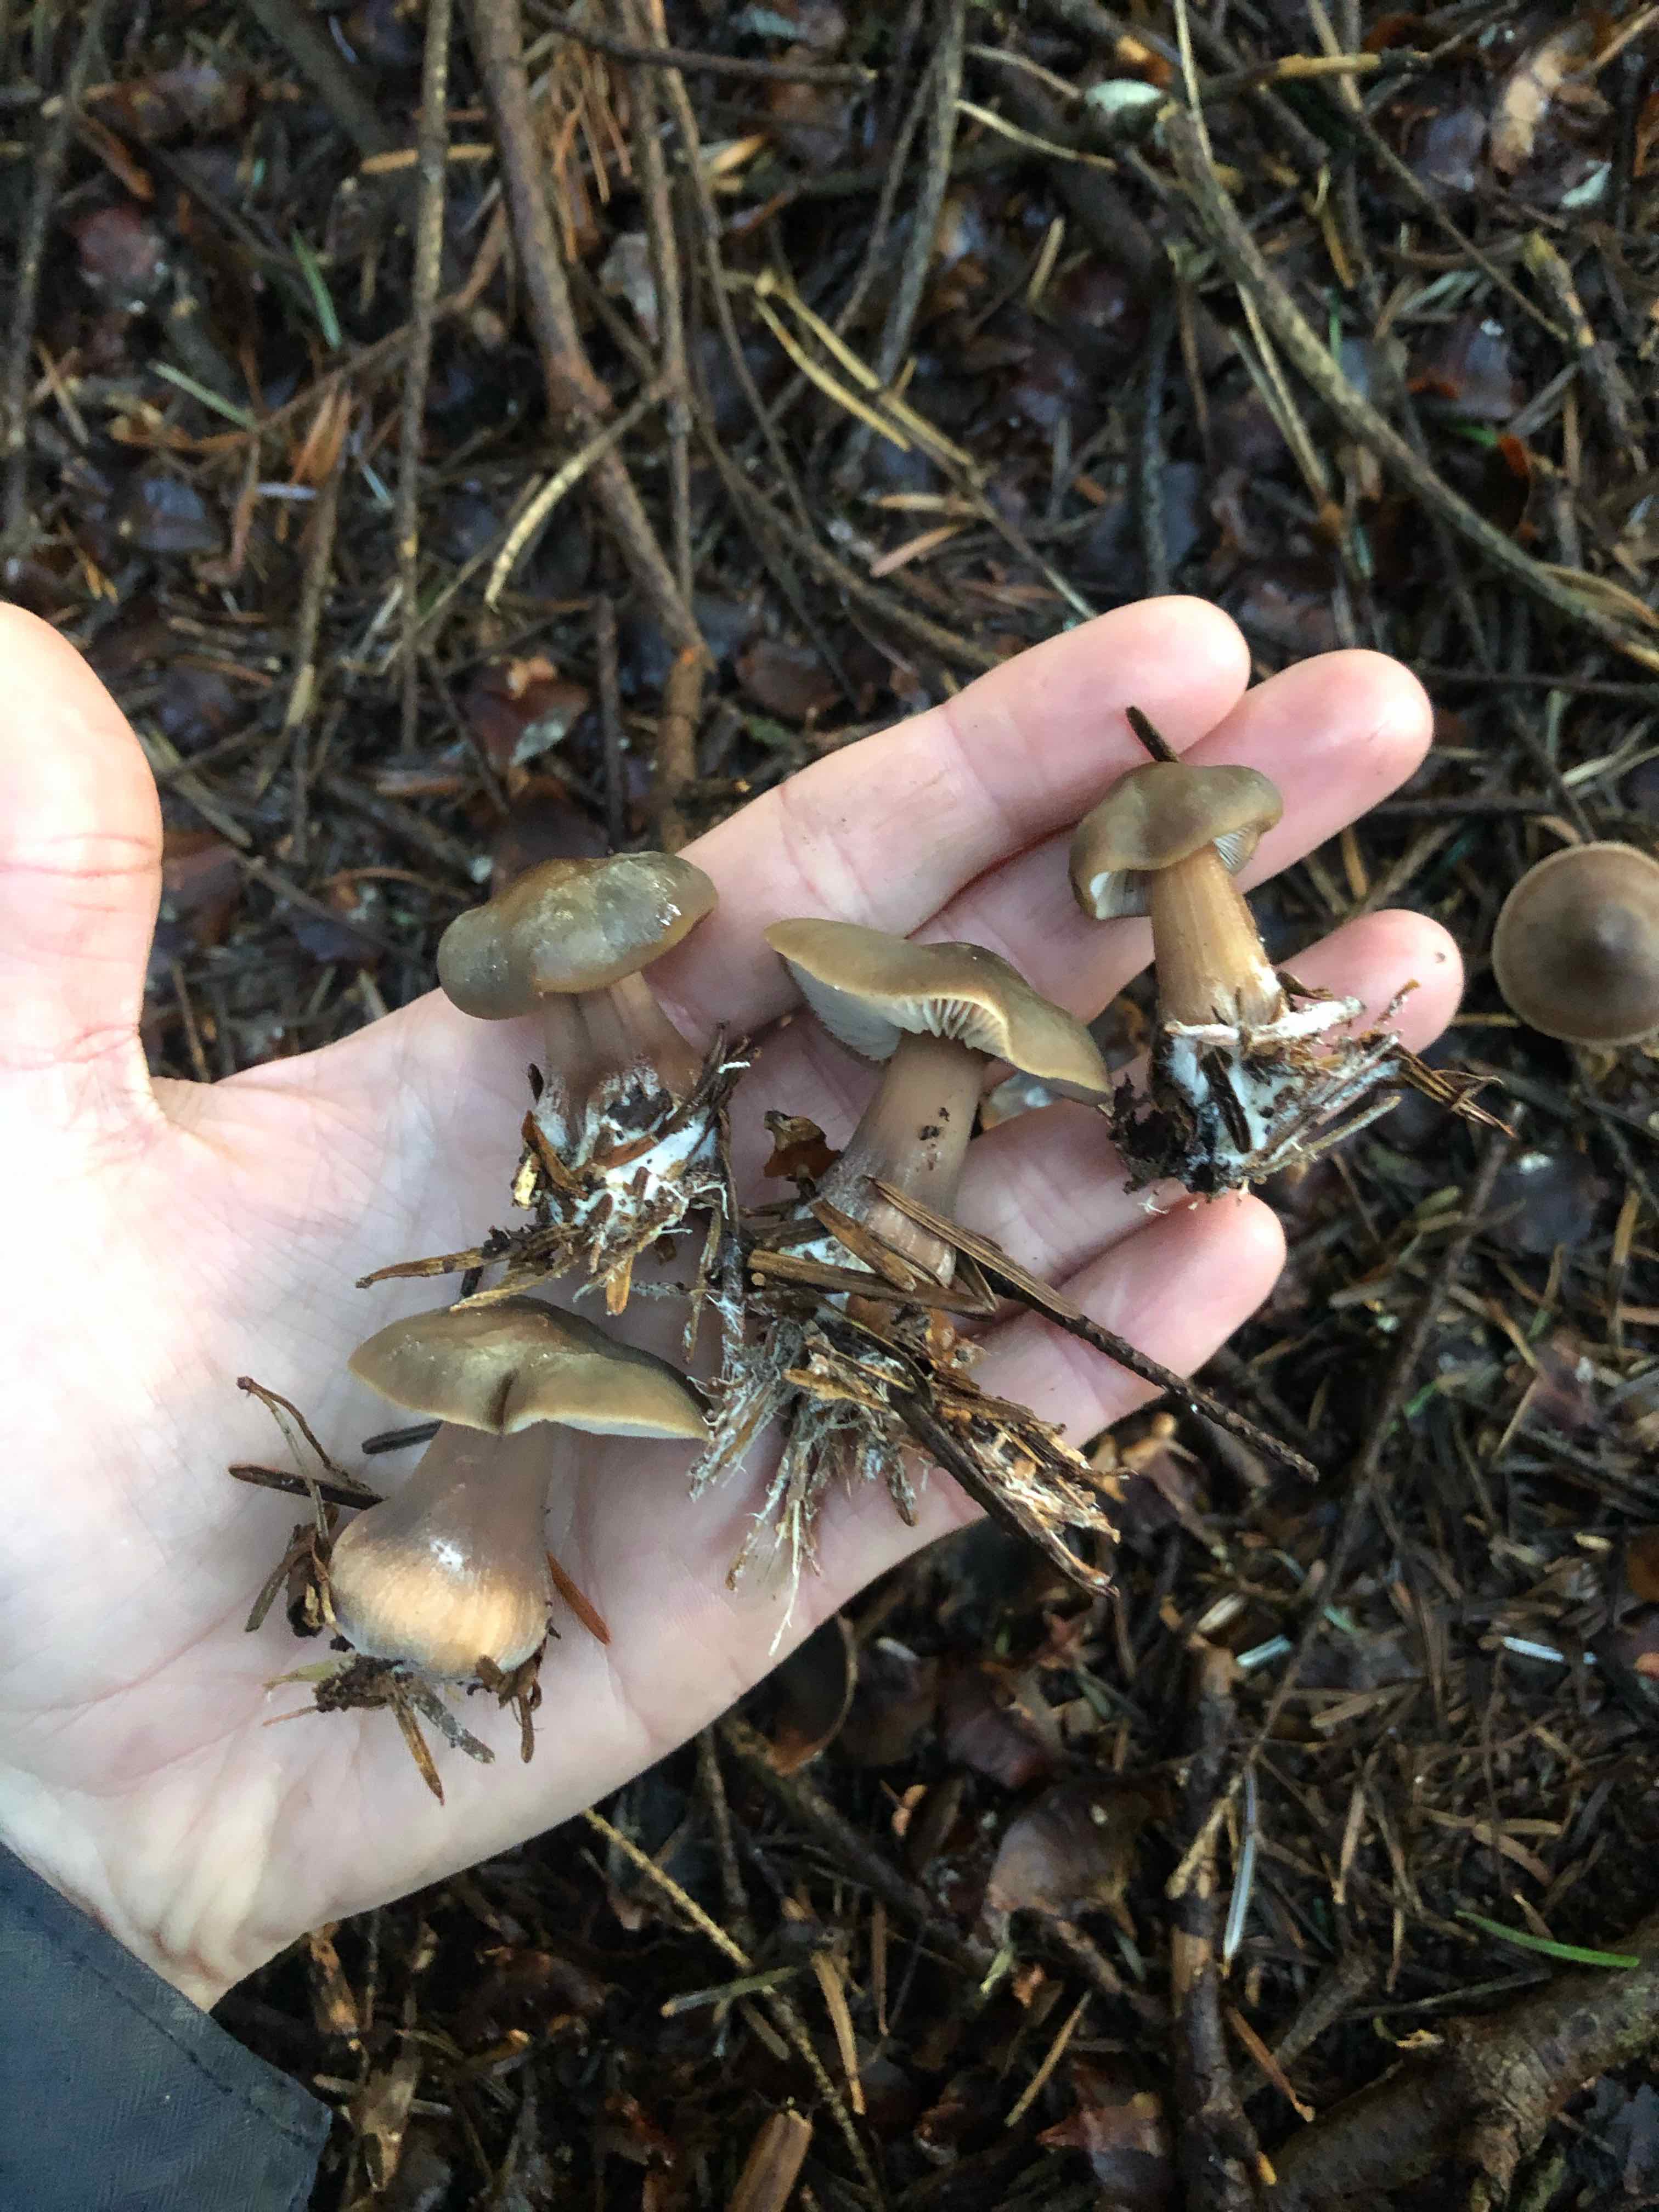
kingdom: Fungi
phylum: Basidiomycota
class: Agaricomycetes
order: Agaricales
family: Omphalotaceae
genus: Rhodocollybia
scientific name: Rhodocollybia asema
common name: horngrå fladhat
